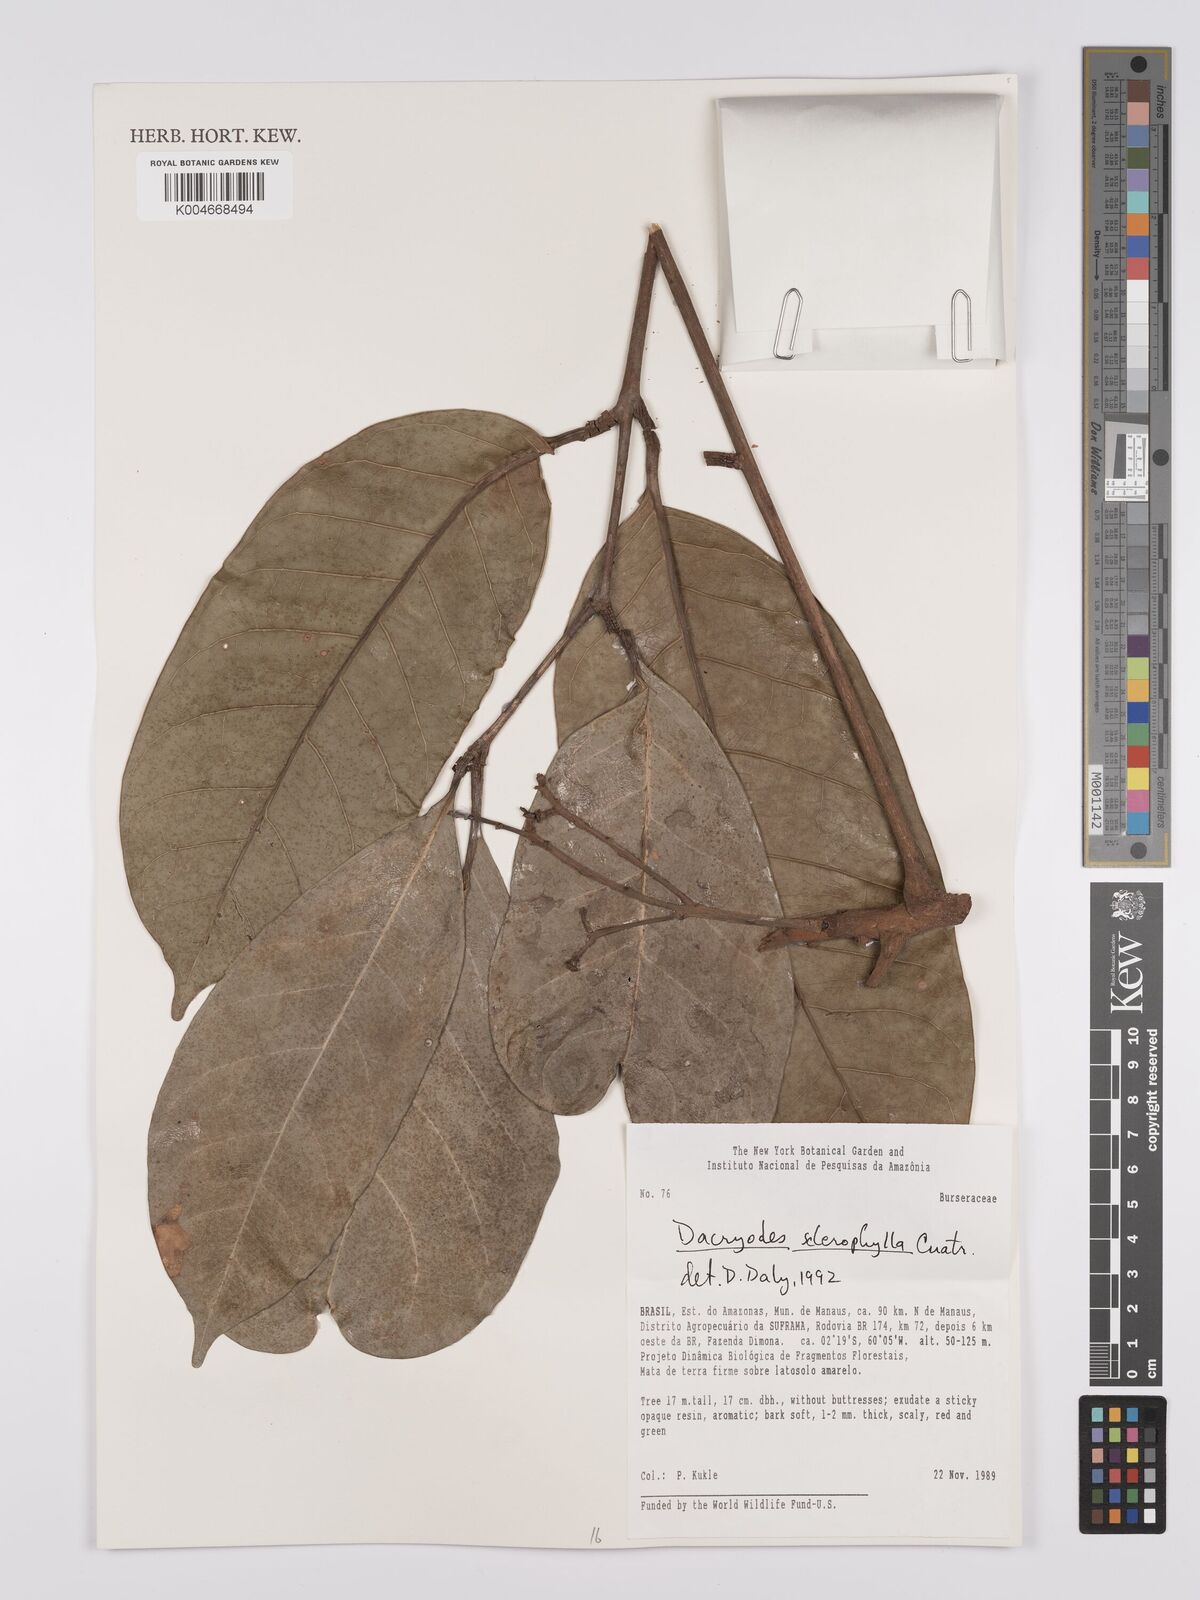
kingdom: Plantae
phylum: Tracheophyta
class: Magnoliopsida
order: Sapindales
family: Burseraceae
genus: Dacryodes
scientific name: Dacryodes sclerophylla
